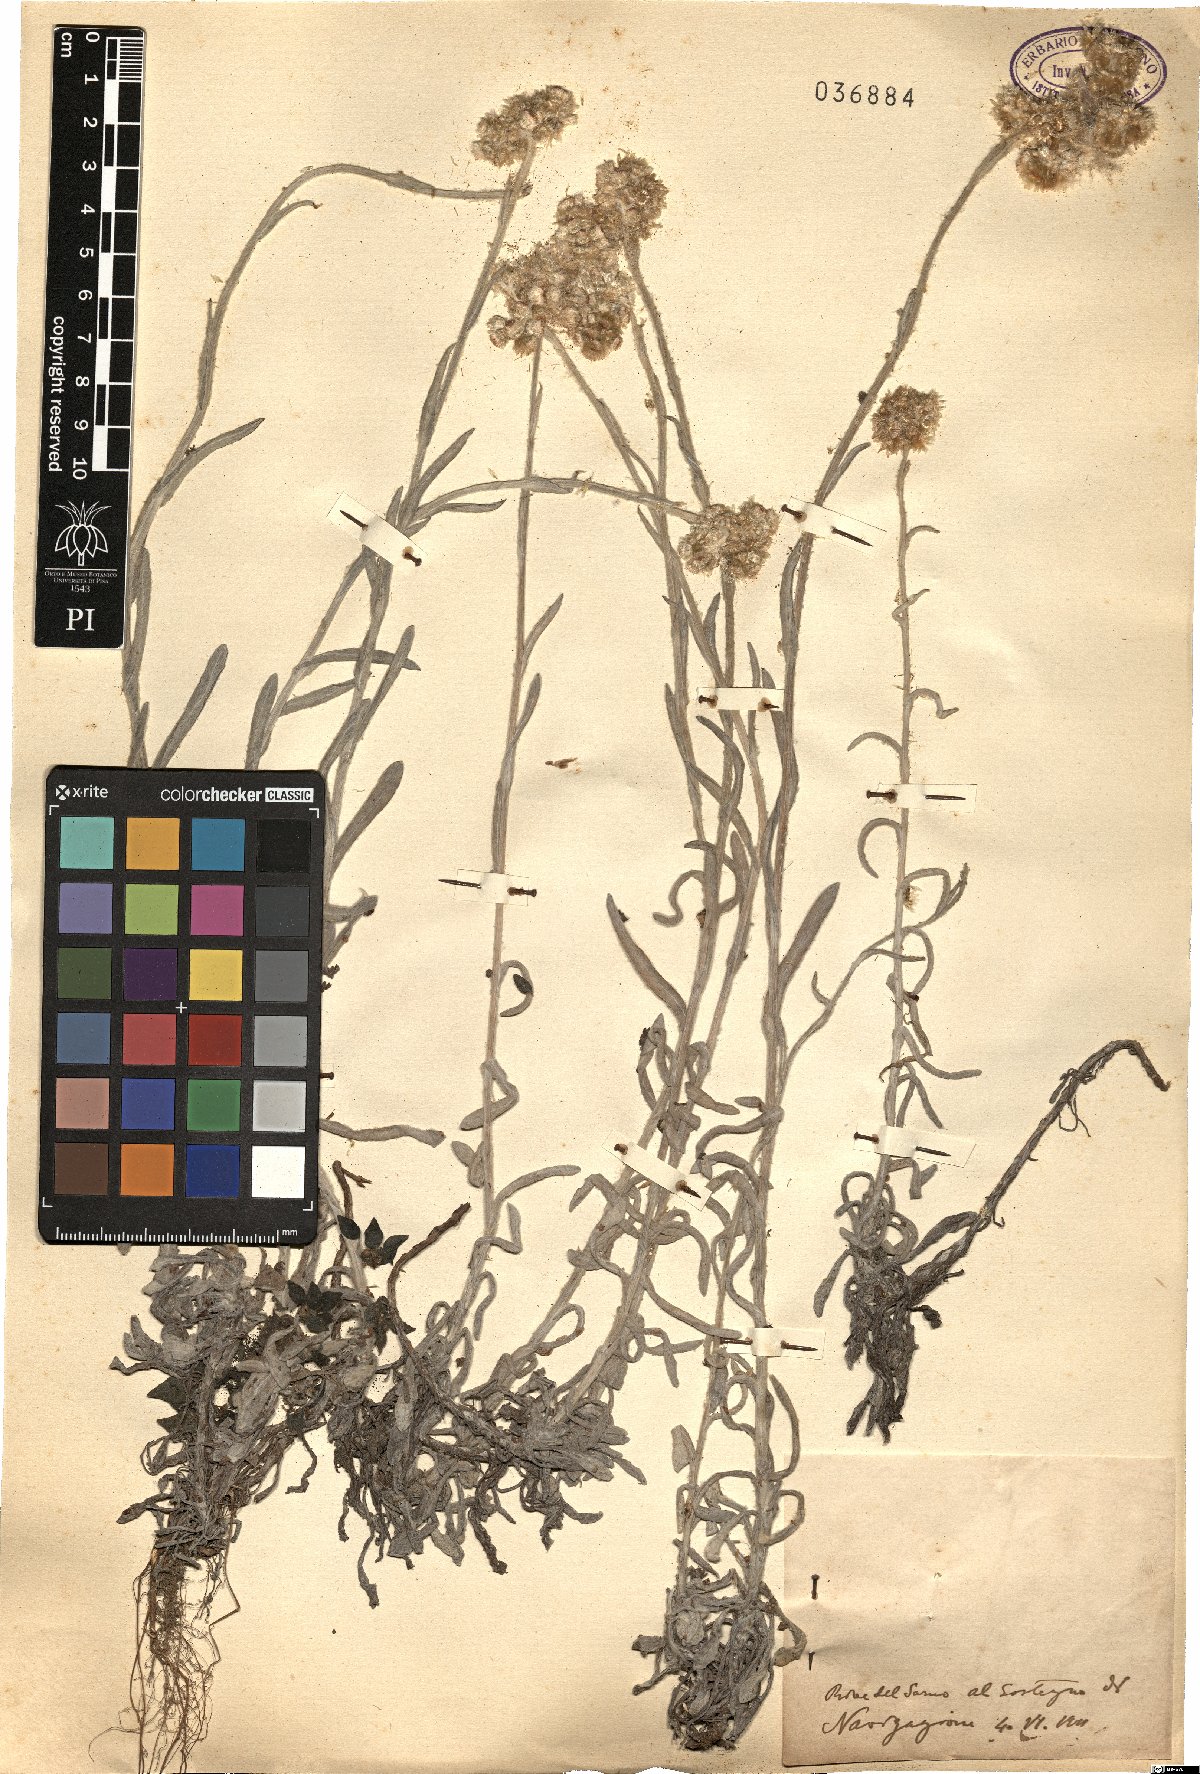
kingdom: Plantae
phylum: Tracheophyta
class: Magnoliopsida
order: Asterales
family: Asteraceae
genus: Gnaphalium
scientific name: Gnaphalium
